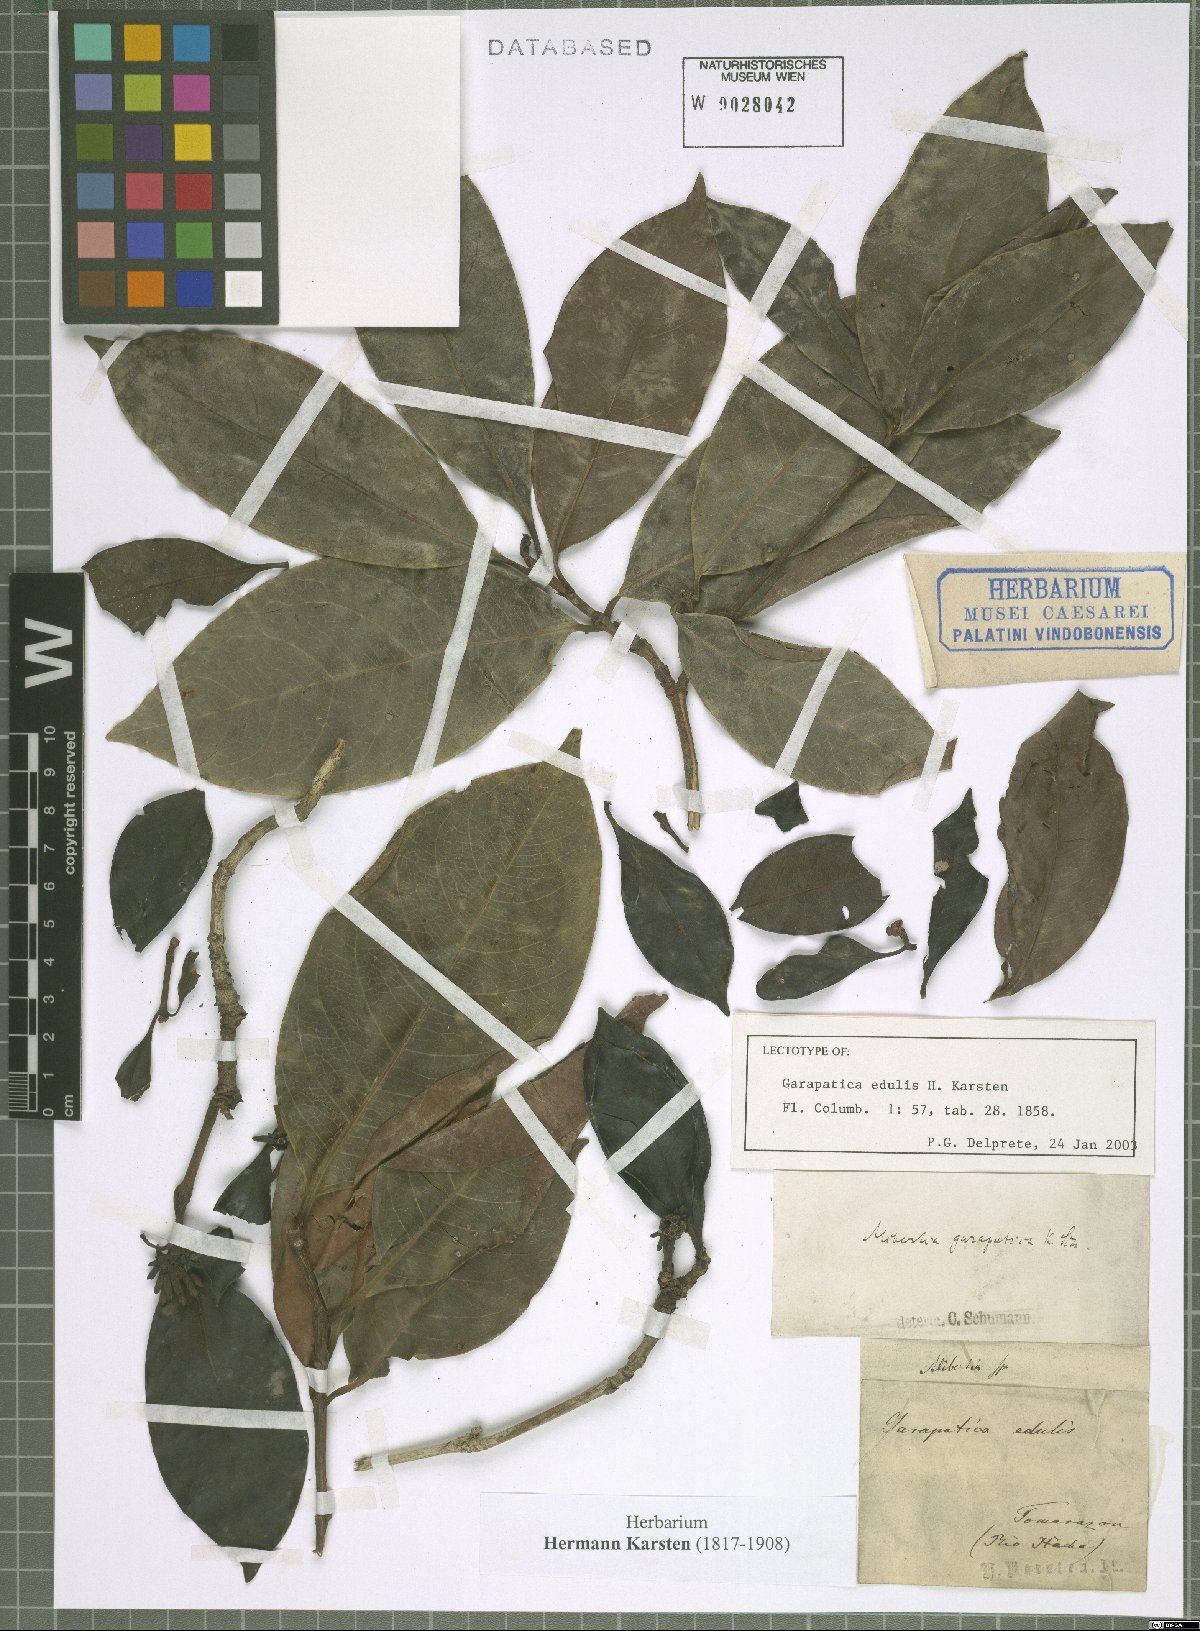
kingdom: Plantae
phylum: Tracheophyta
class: Magnoliopsida
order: Gentianales
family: Rubiaceae
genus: Alibertia
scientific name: Alibertia edulis
